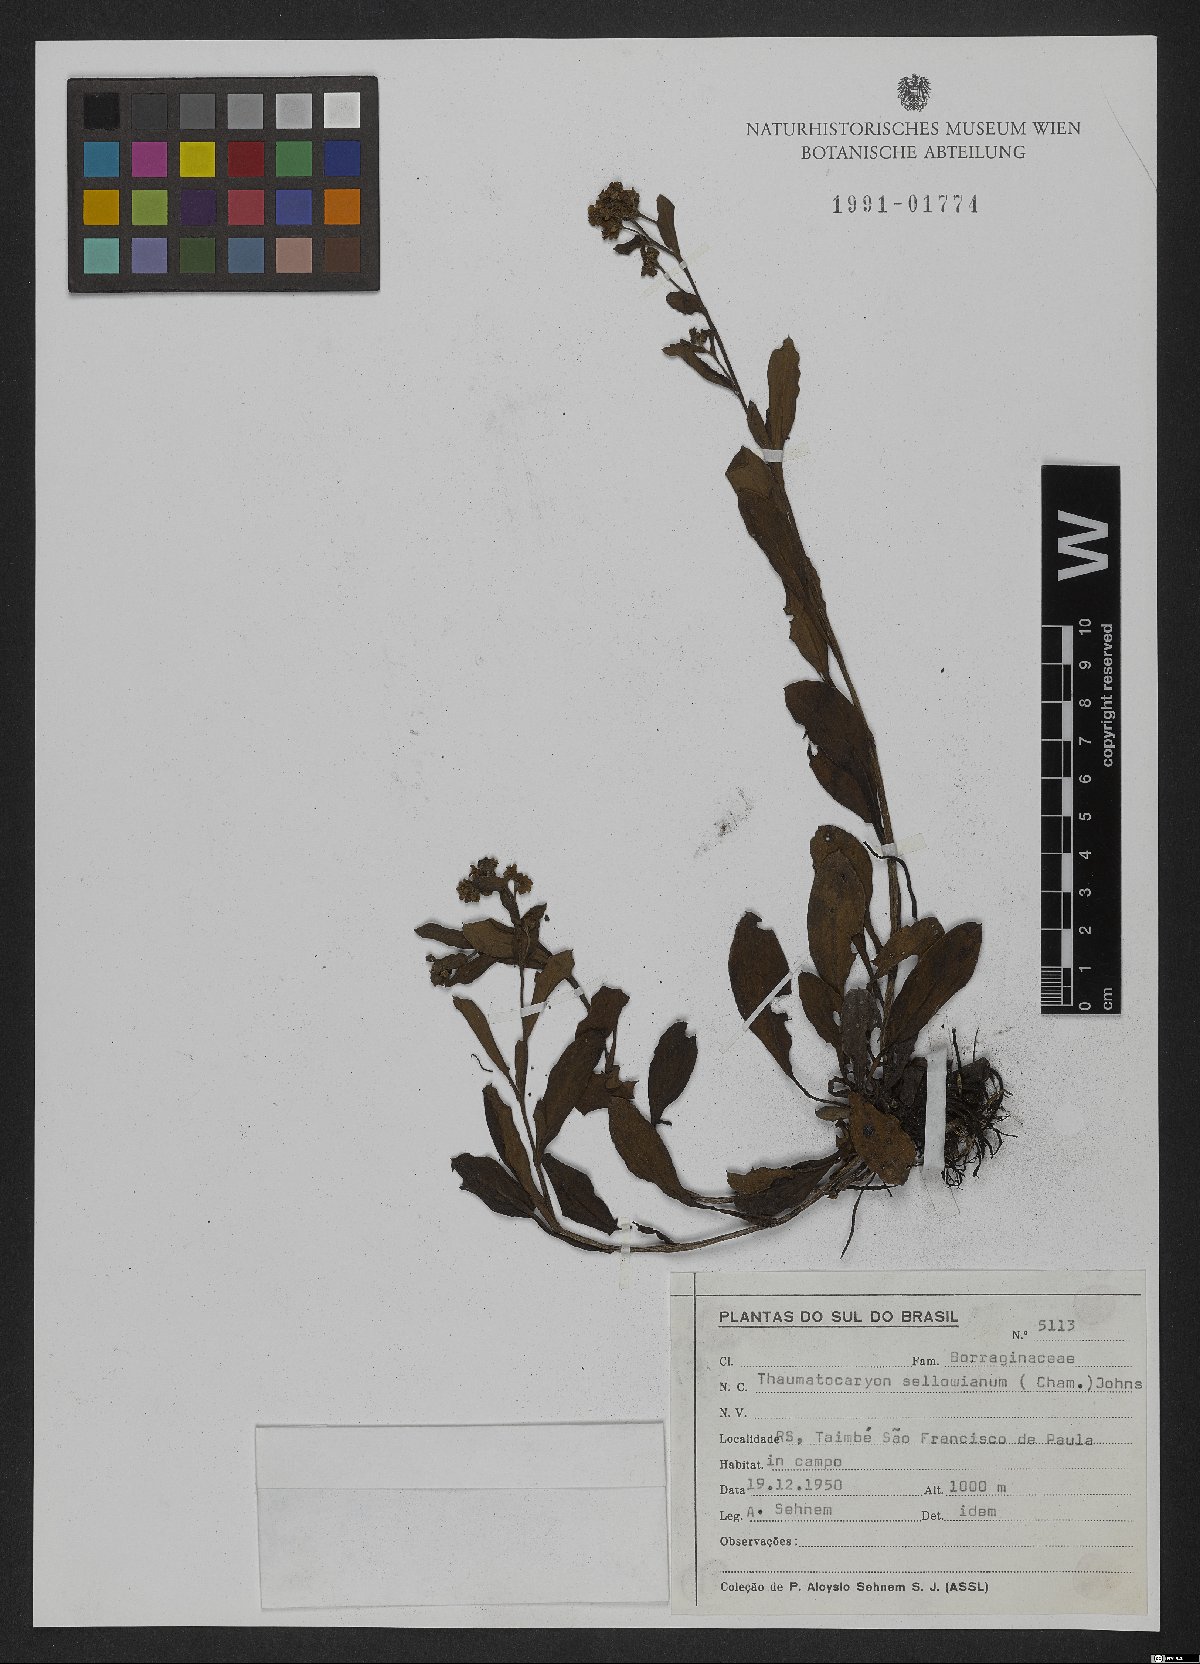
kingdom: Plantae
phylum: Tracheophyta
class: Magnoliopsida
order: Boraginales
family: Boraginaceae
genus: Thaumatocaryon
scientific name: Thaumatocaryon dasyanthum
